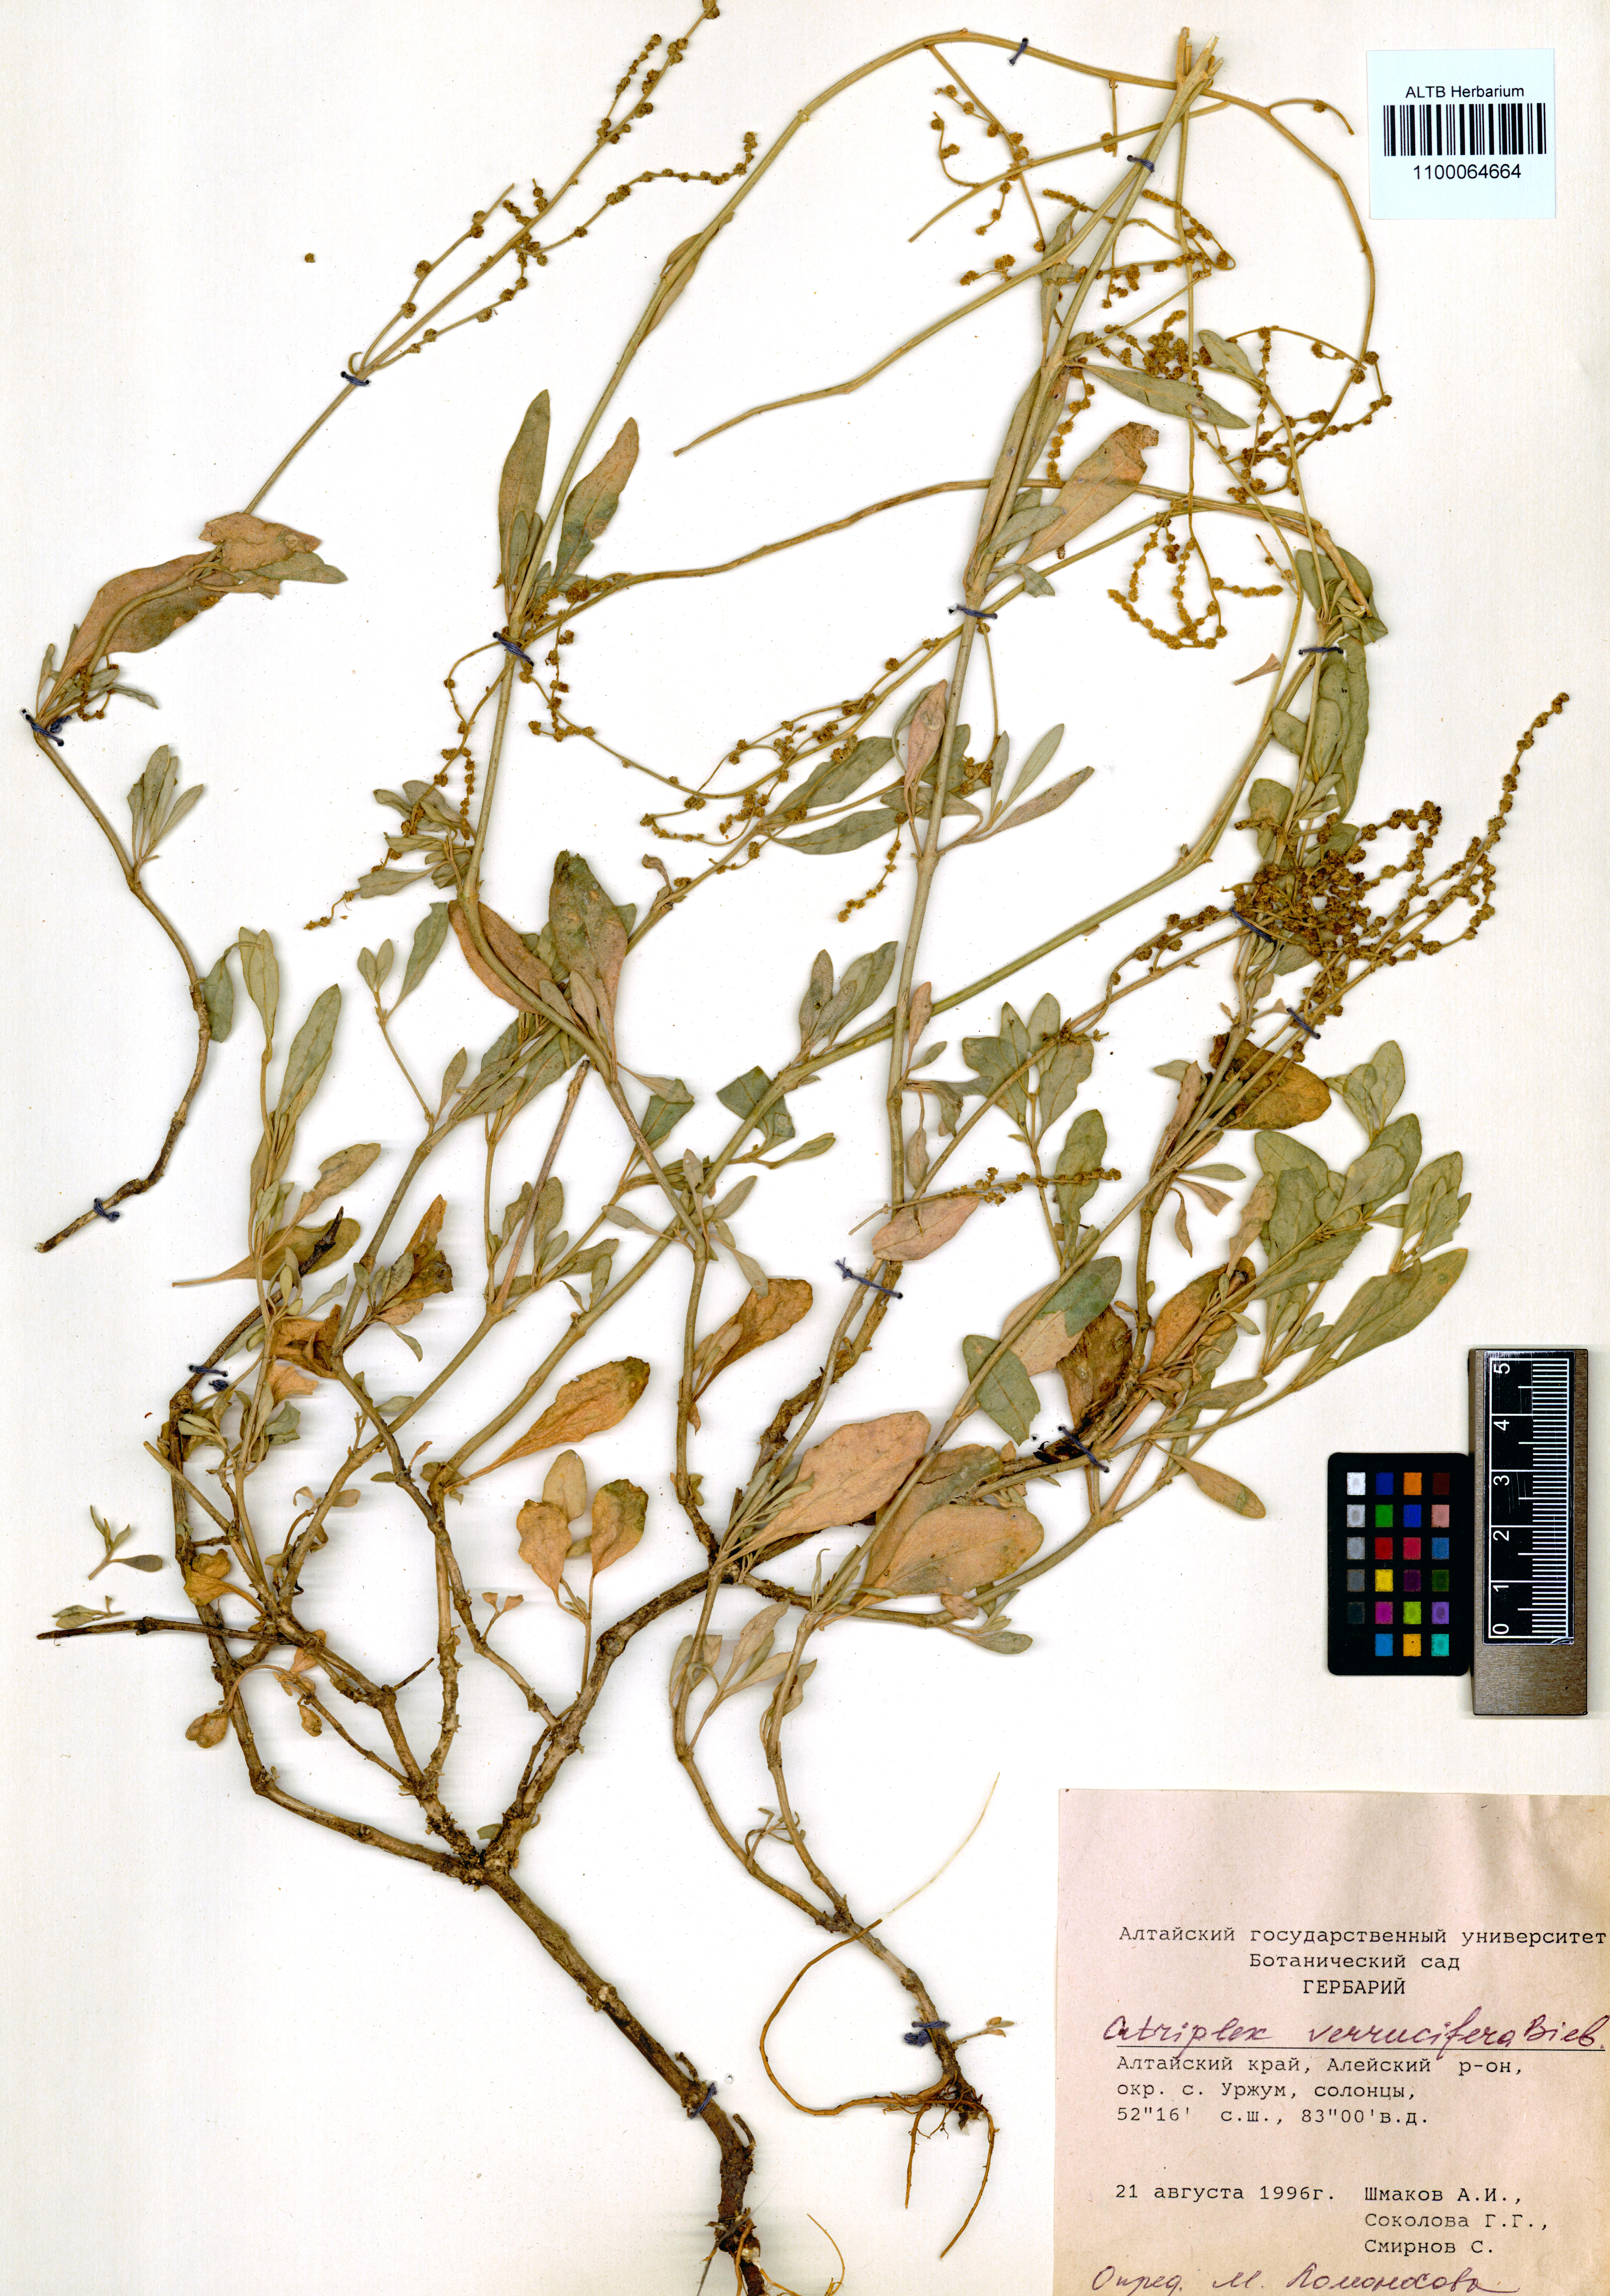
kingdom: Plantae
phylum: Tracheophyta
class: Magnoliopsida
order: Caryophyllales
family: Amaranthaceae
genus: Halimione
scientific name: Halimione verrucifera
